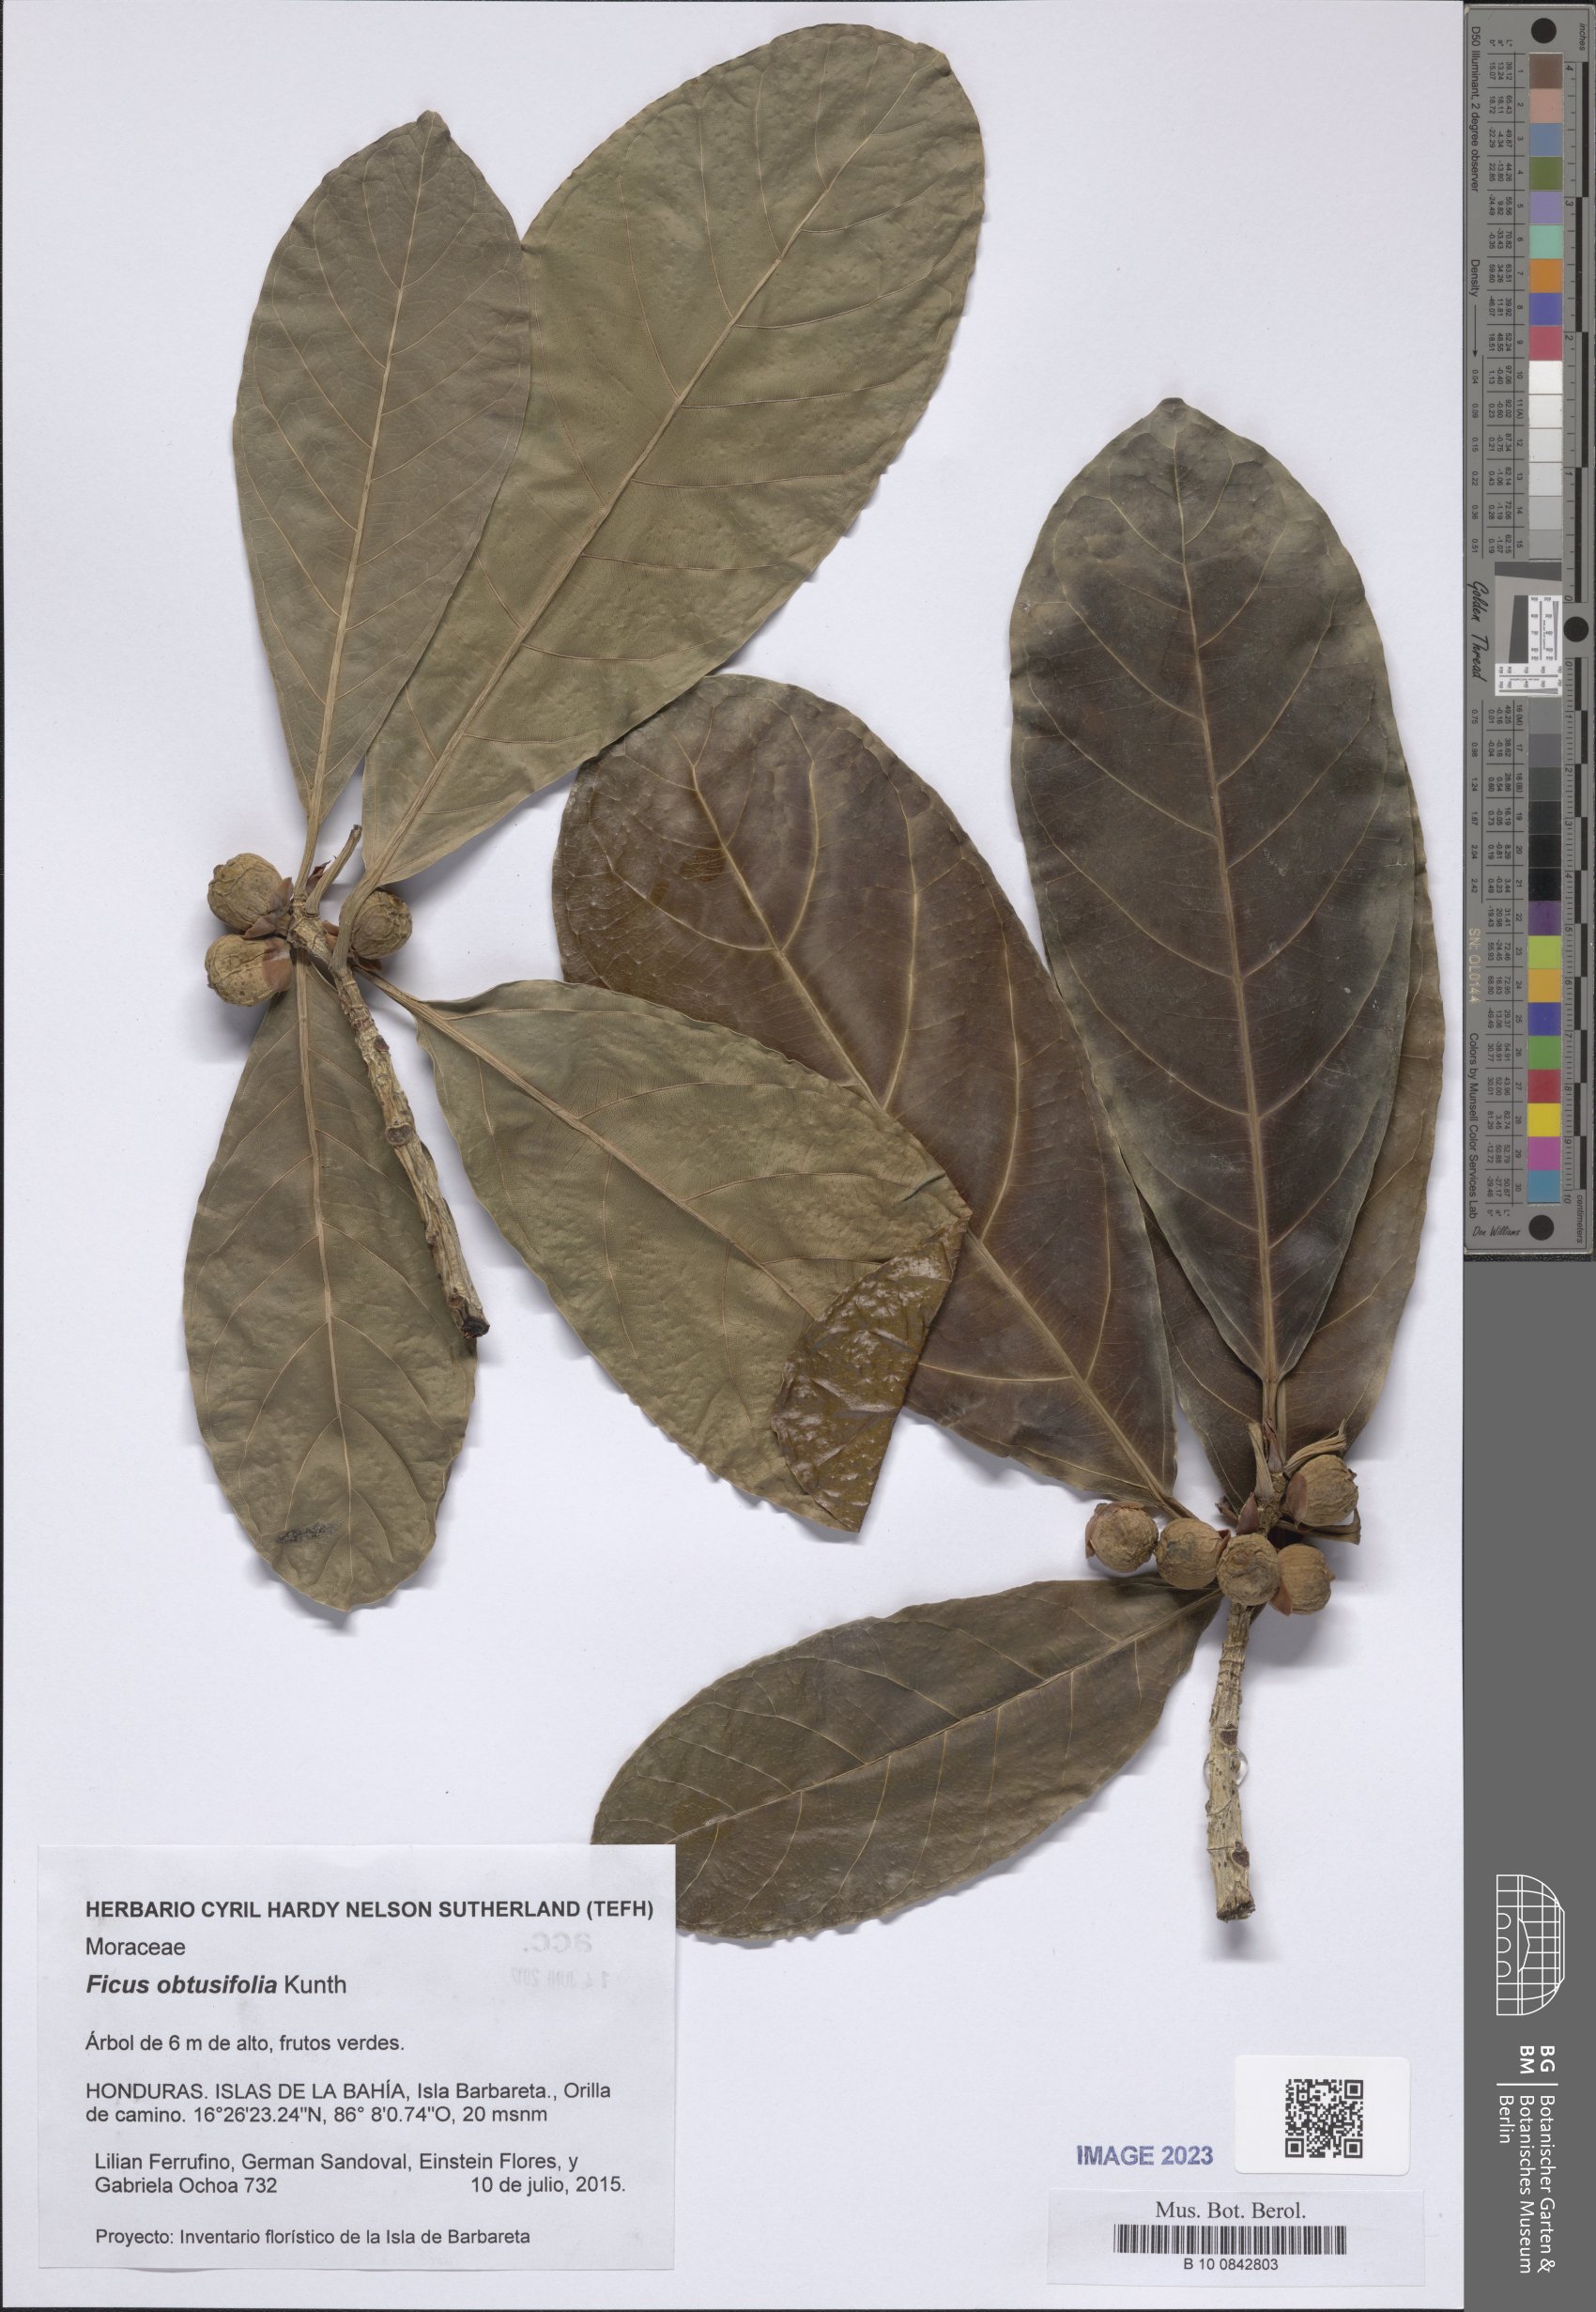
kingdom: Plantae
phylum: Tracheophyta
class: Magnoliopsida
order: Rosales
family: Moraceae
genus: Ficus
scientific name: Ficus obtusifolia
